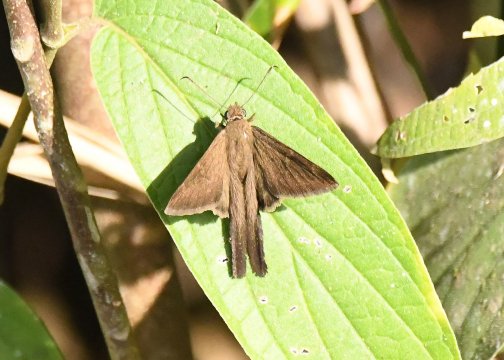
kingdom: Animalia
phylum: Arthropoda
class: Insecta
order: Lepidoptera
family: Hesperiidae
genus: Urbanus
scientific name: Urbanus simplicius
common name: Plain Longtail
